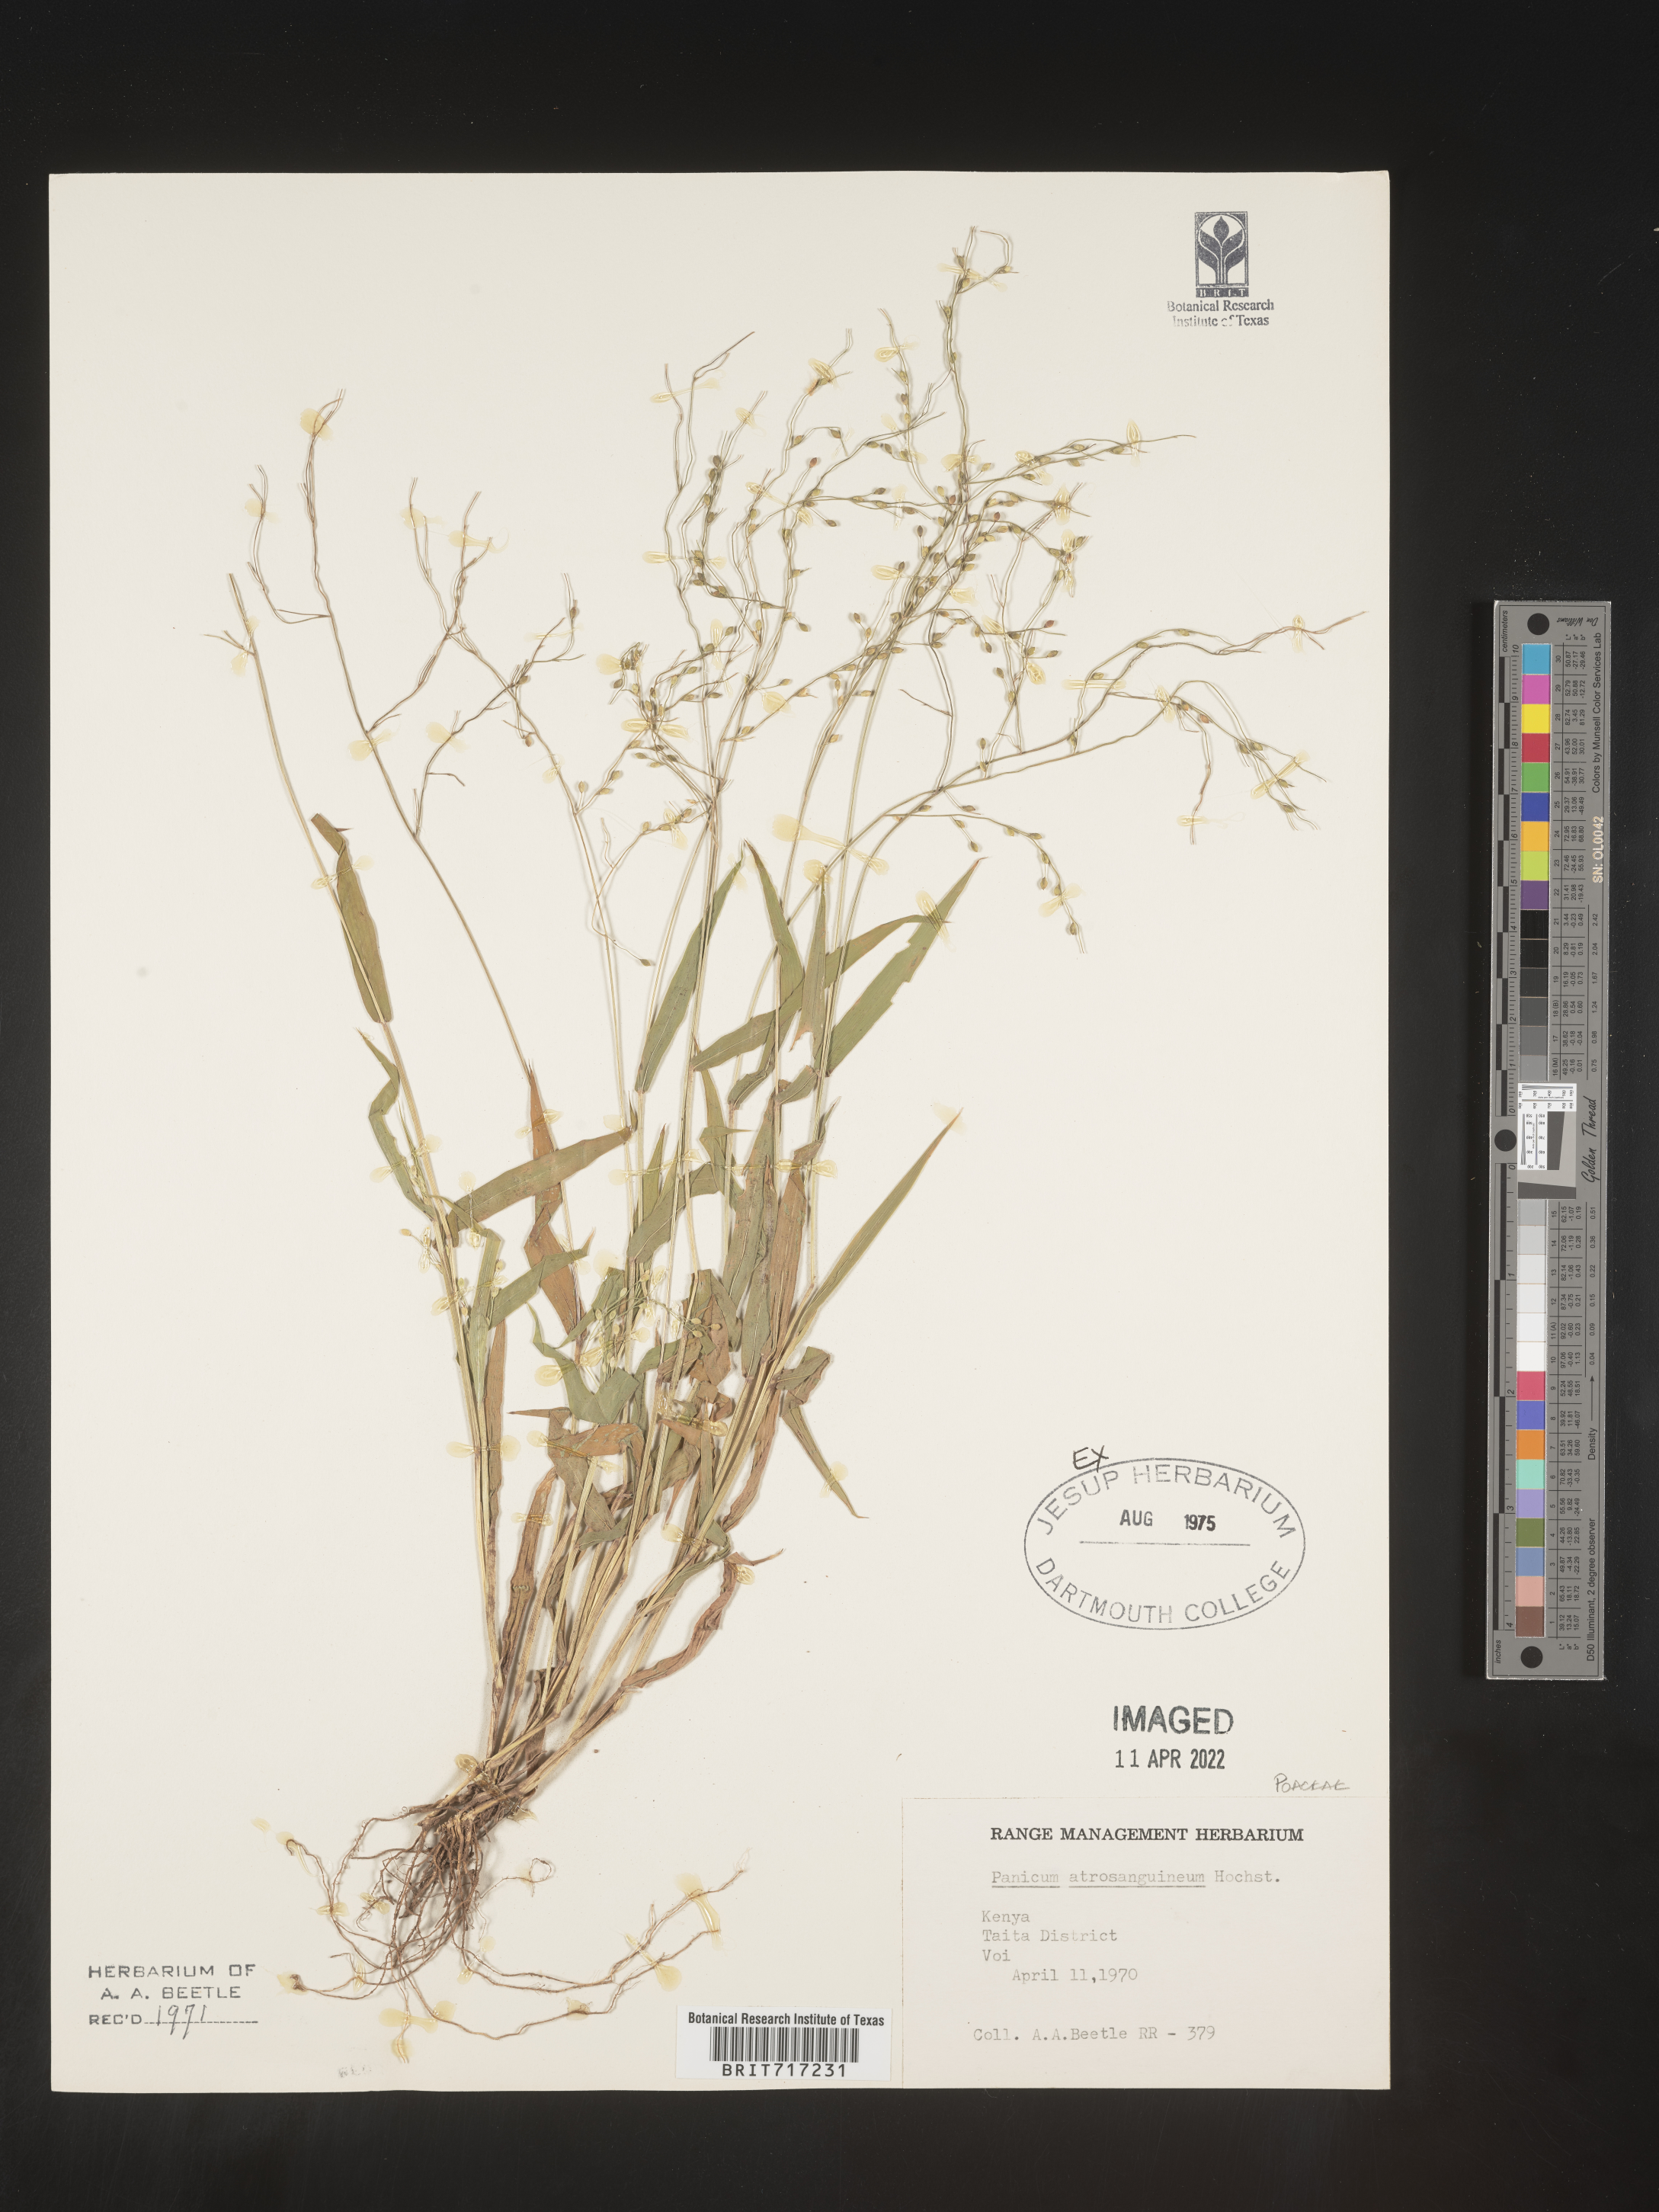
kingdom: Plantae
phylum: Tracheophyta
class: Liliopsida
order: Poales
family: Poaceae
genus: Panicum
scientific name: Panicum
